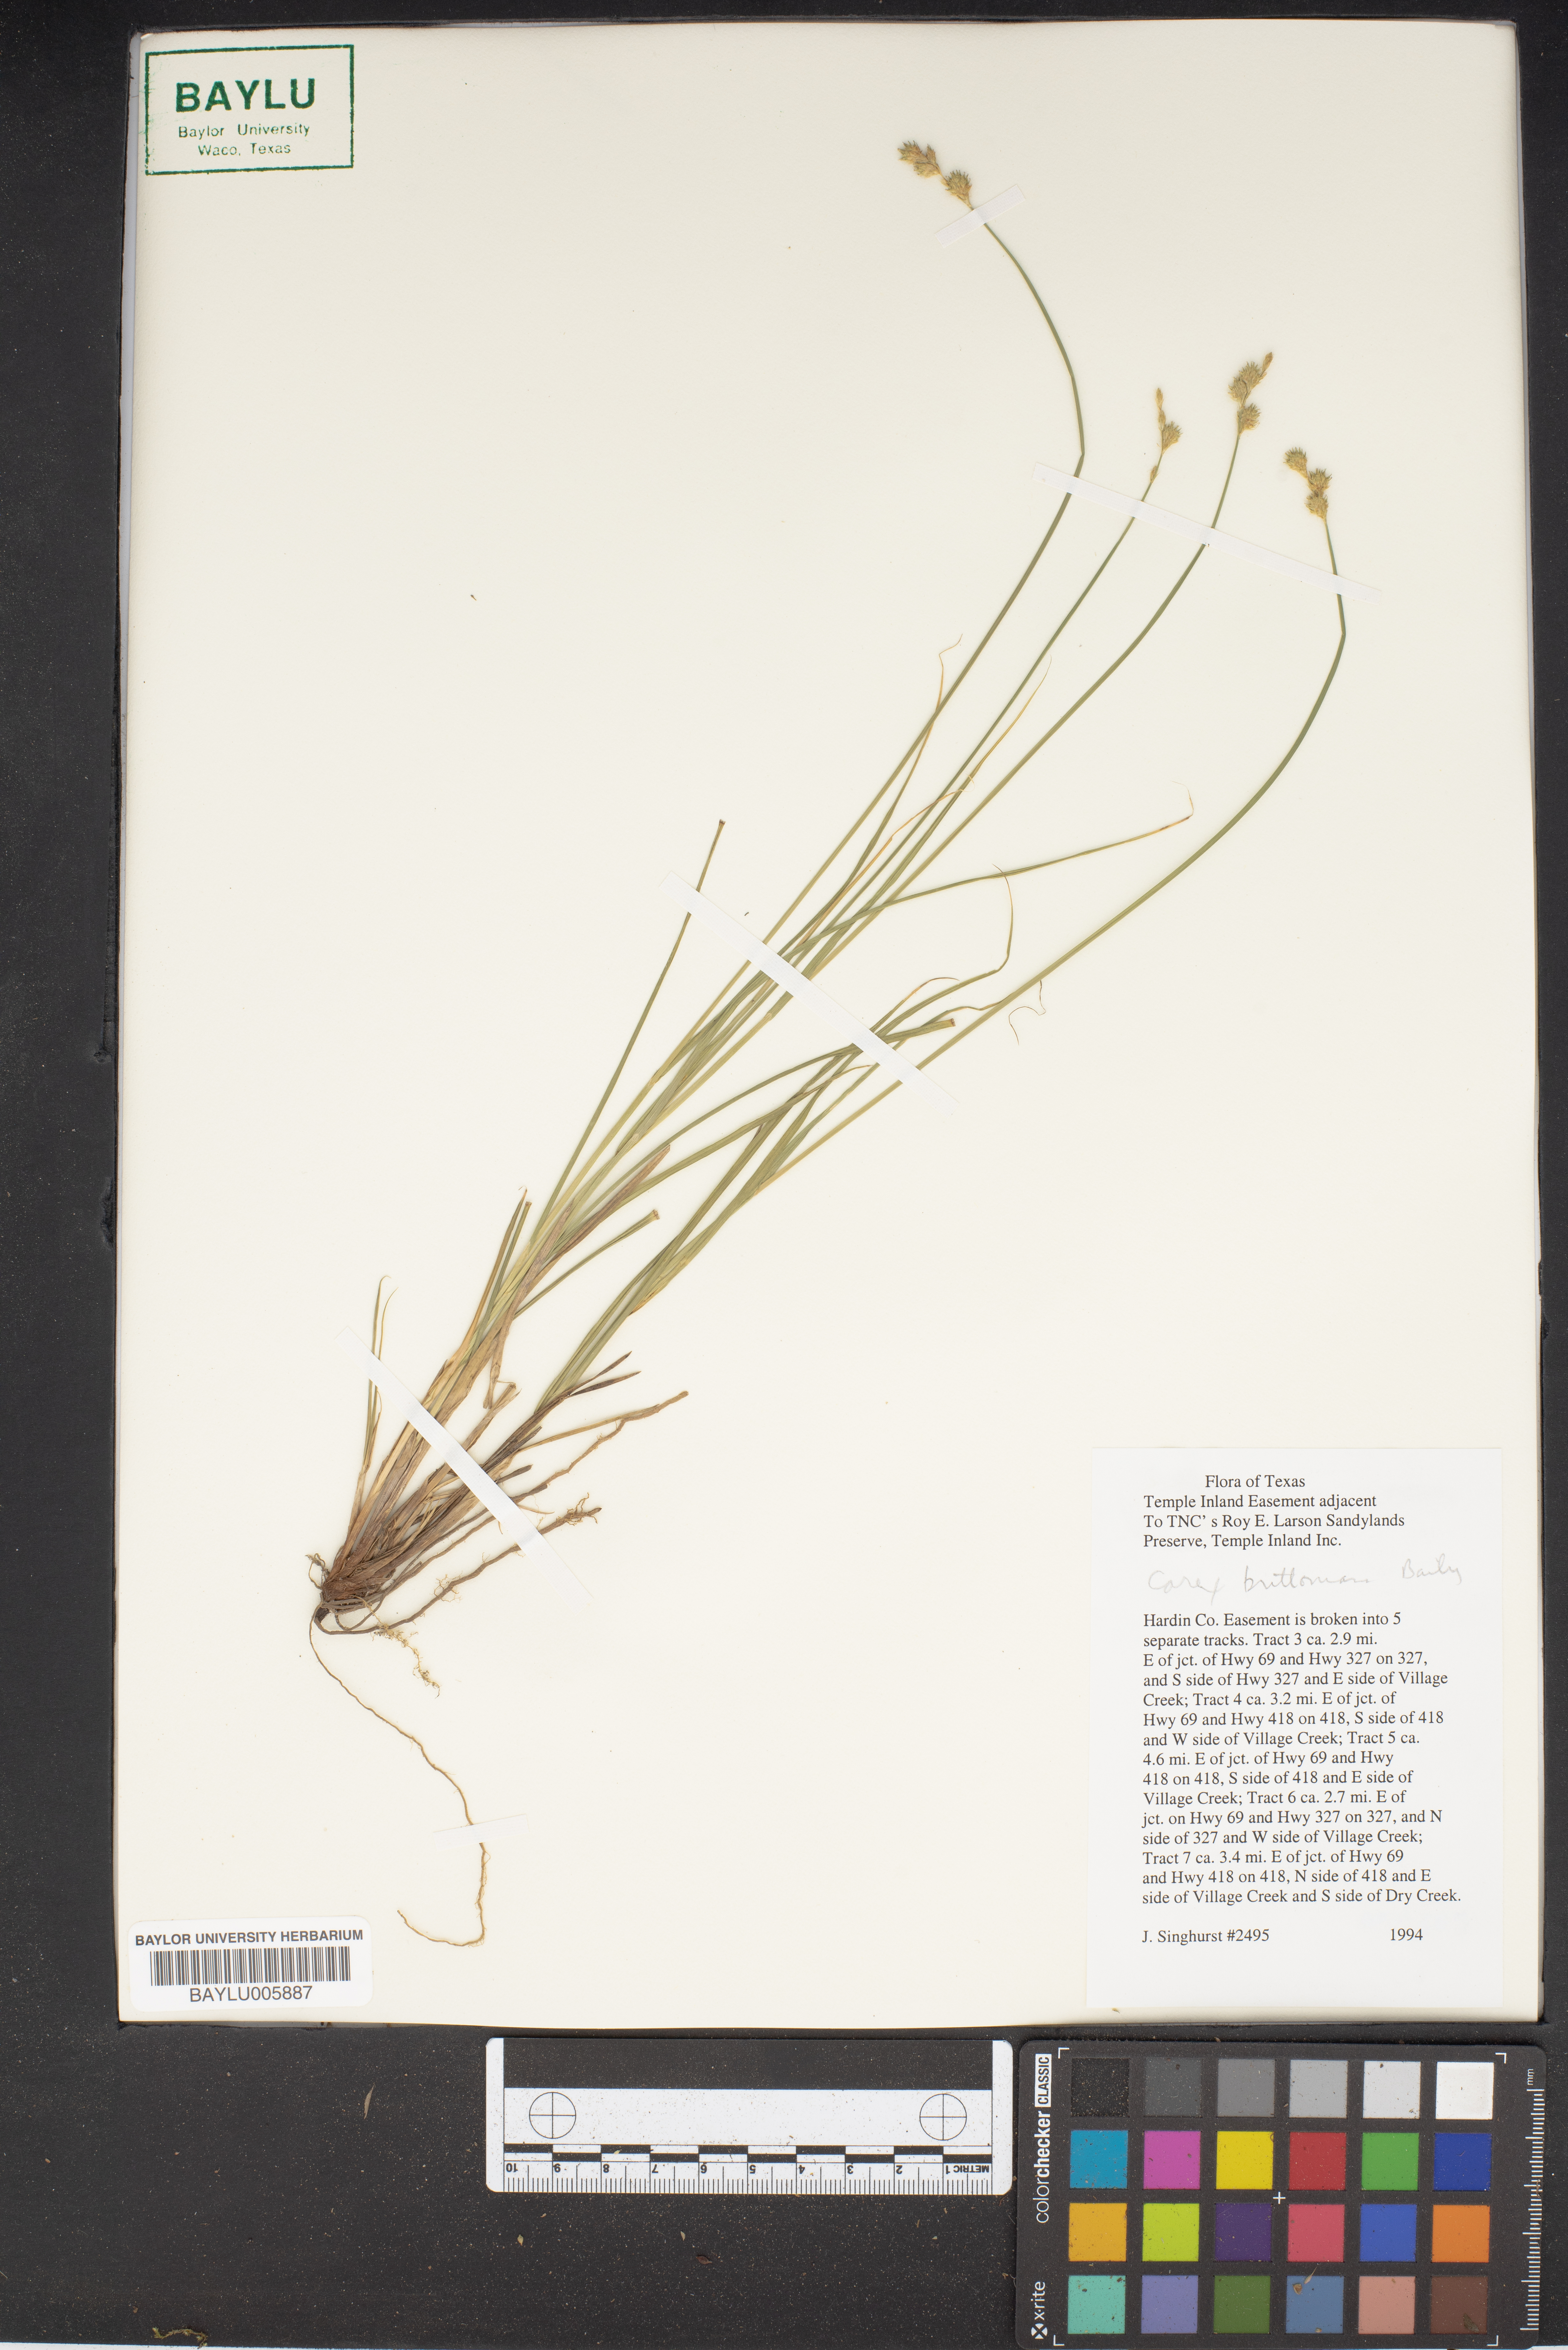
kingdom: Plantae
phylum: Tracheophyta
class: Liliopsida
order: Poales
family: Cyperaceae
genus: Carex
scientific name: Carex tetrastachya
